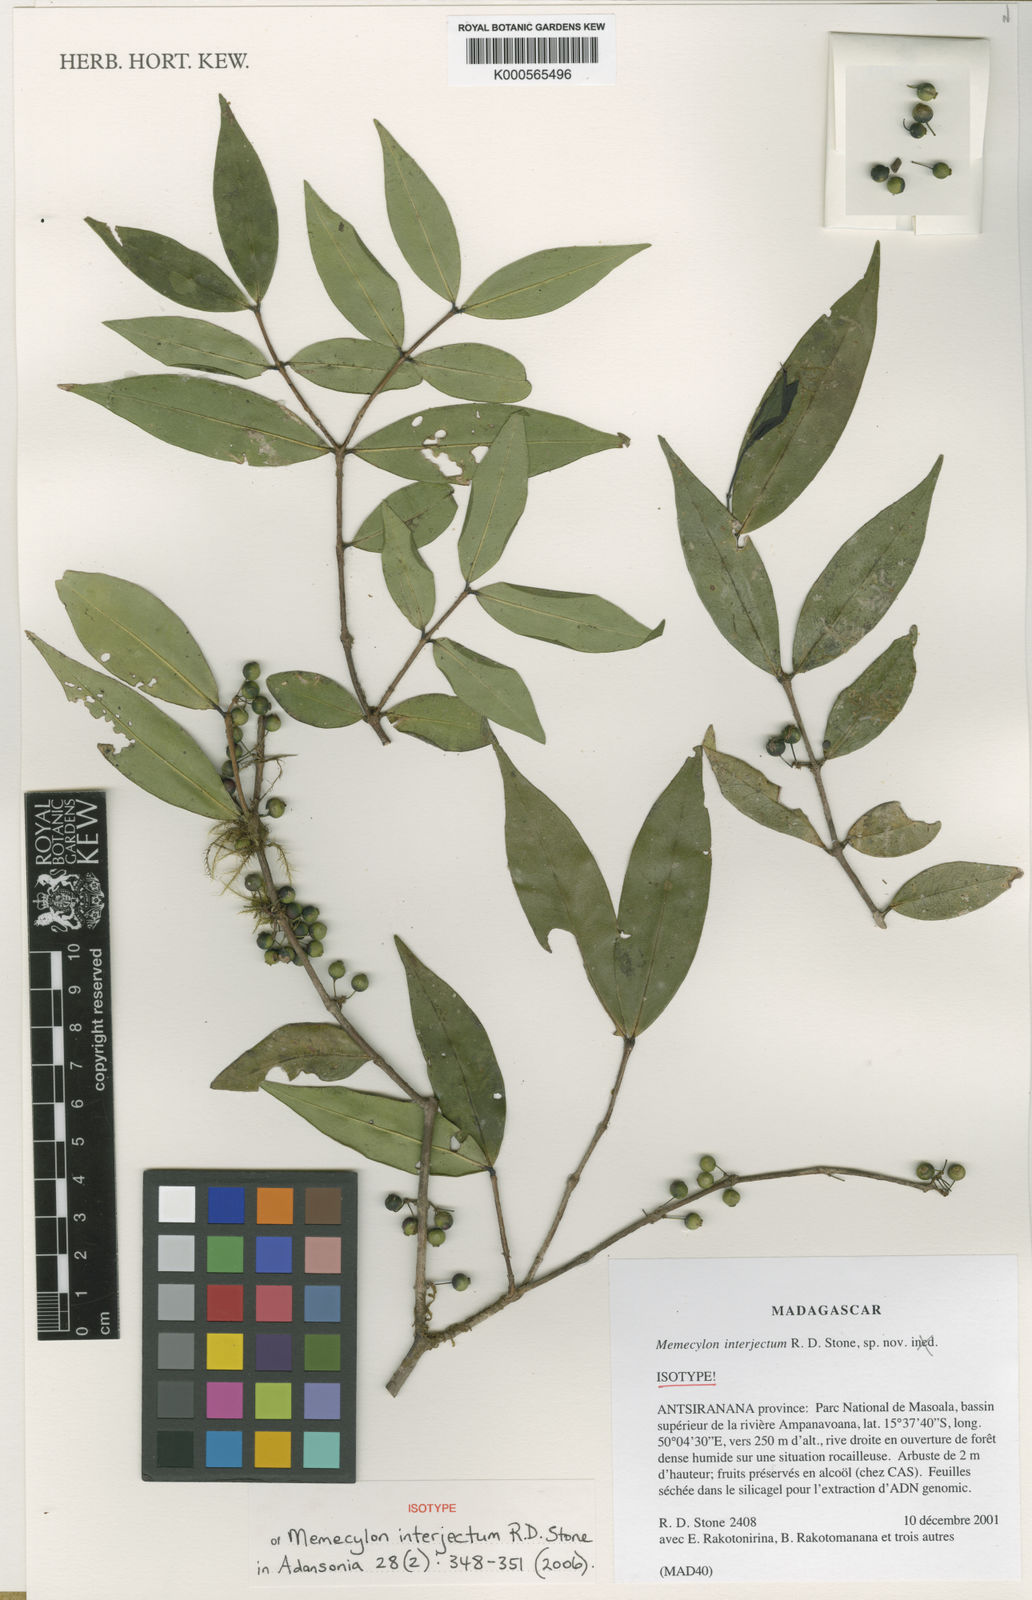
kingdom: Plantae
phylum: Tracheophyta
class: Magnoliopsida
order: Myrtales
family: Melastomataceae
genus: Memecylon
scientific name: Memecylon interjectum
